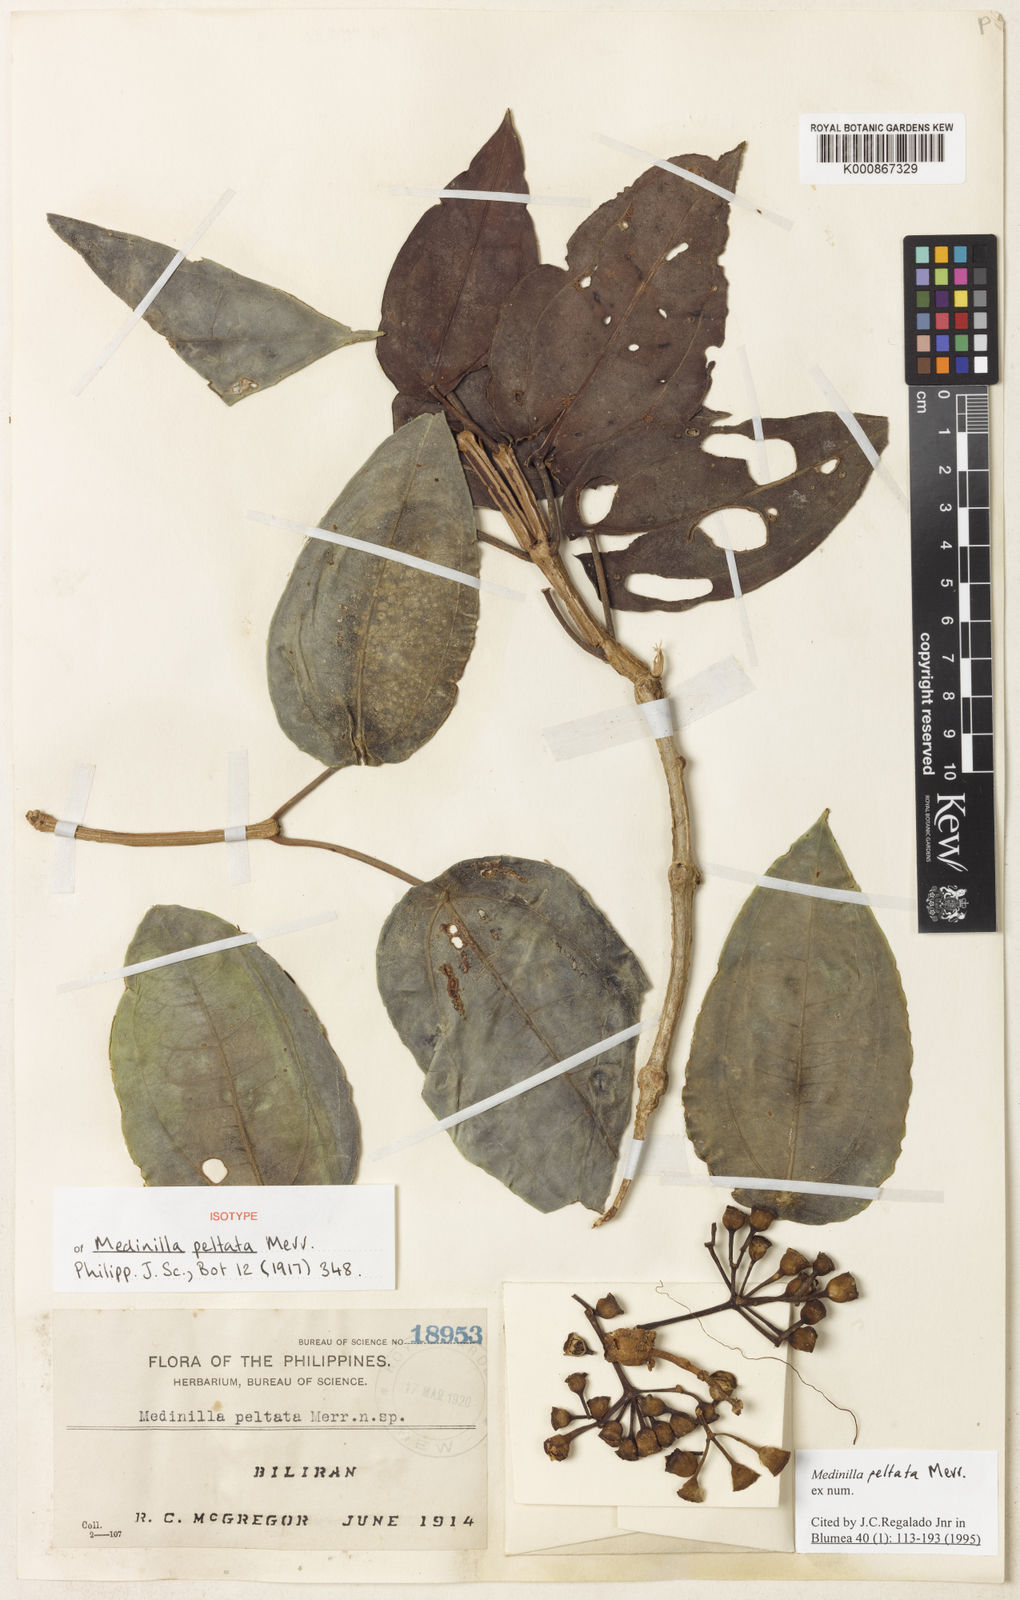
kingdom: Plantae
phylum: Tracheophyta
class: Magnoliopsida
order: Myrtales
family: Melastomataceae
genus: Medinilla
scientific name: Medinilla peltata
